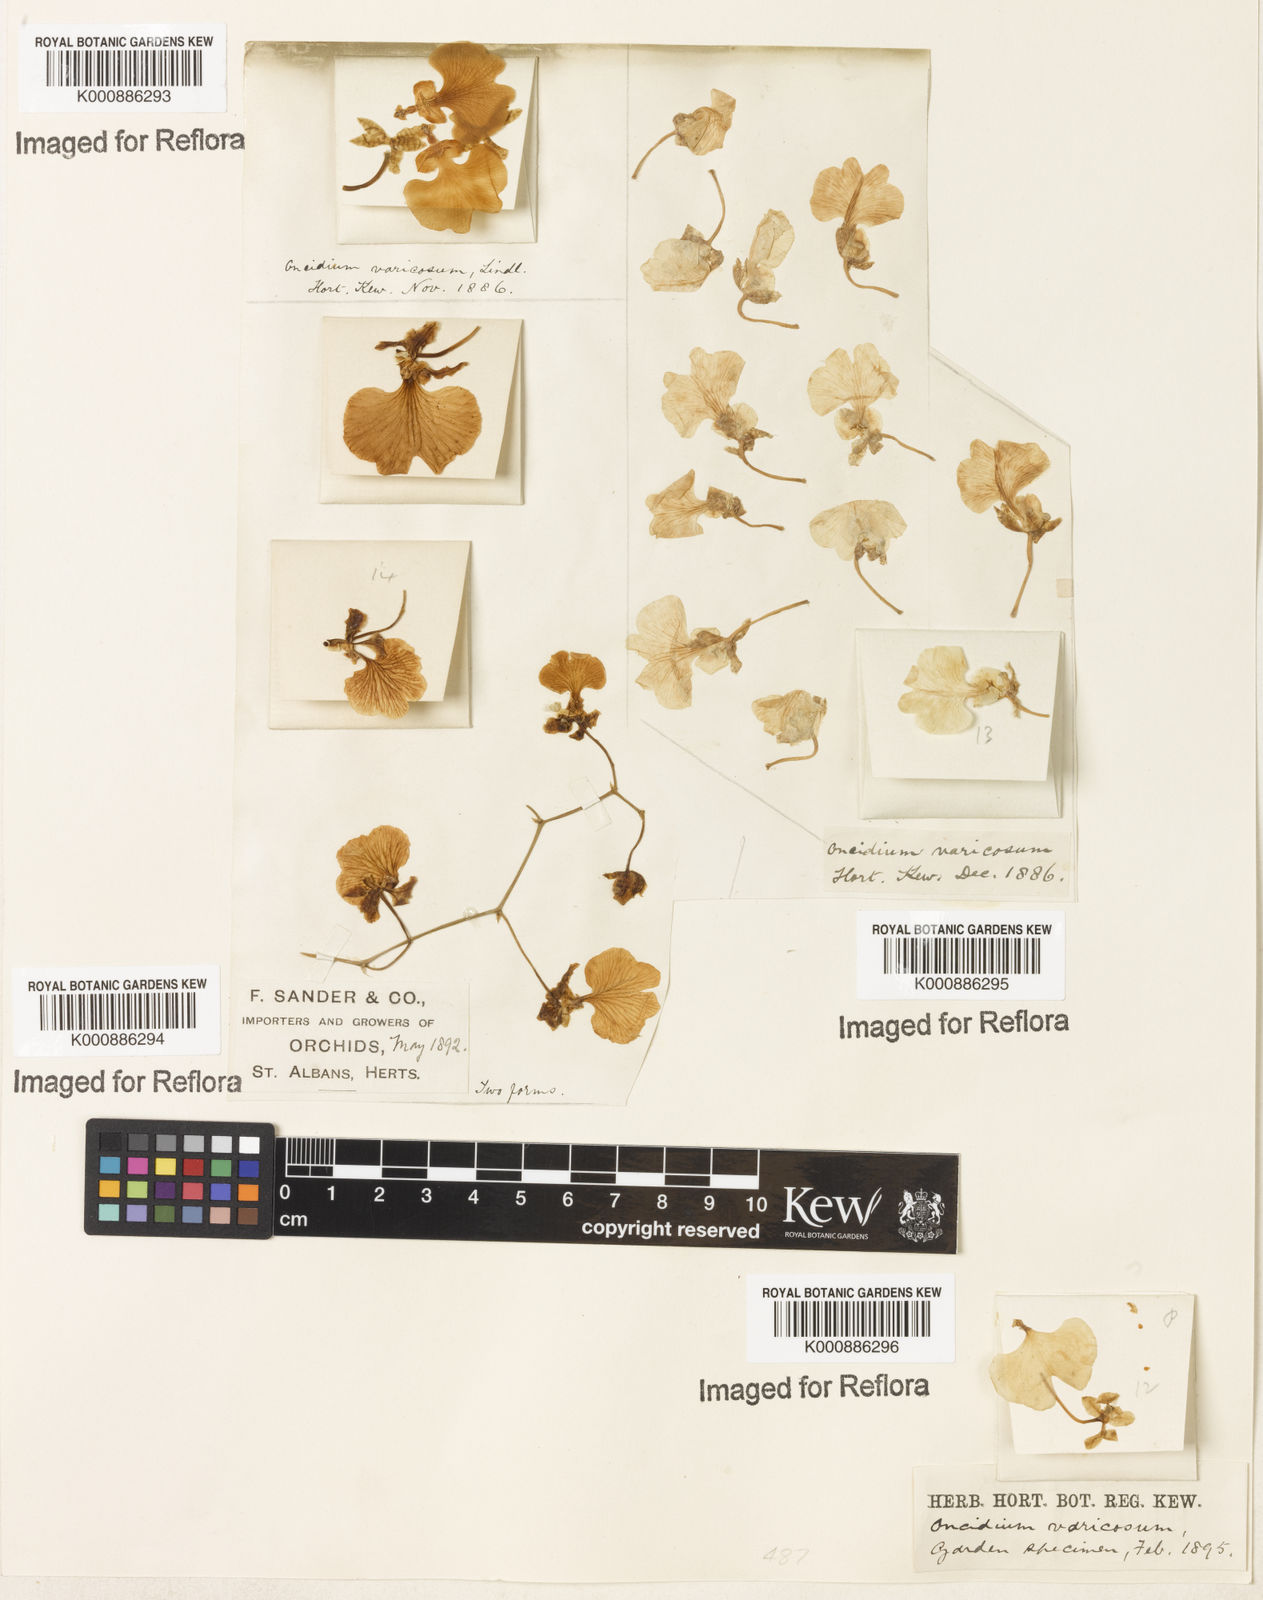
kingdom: Plantae
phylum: Tracheophyta
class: Liliopsida
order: Asparagales
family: Orchidaceae
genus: Gomesa
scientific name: Gomesa varicosa
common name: Dancing ladies
